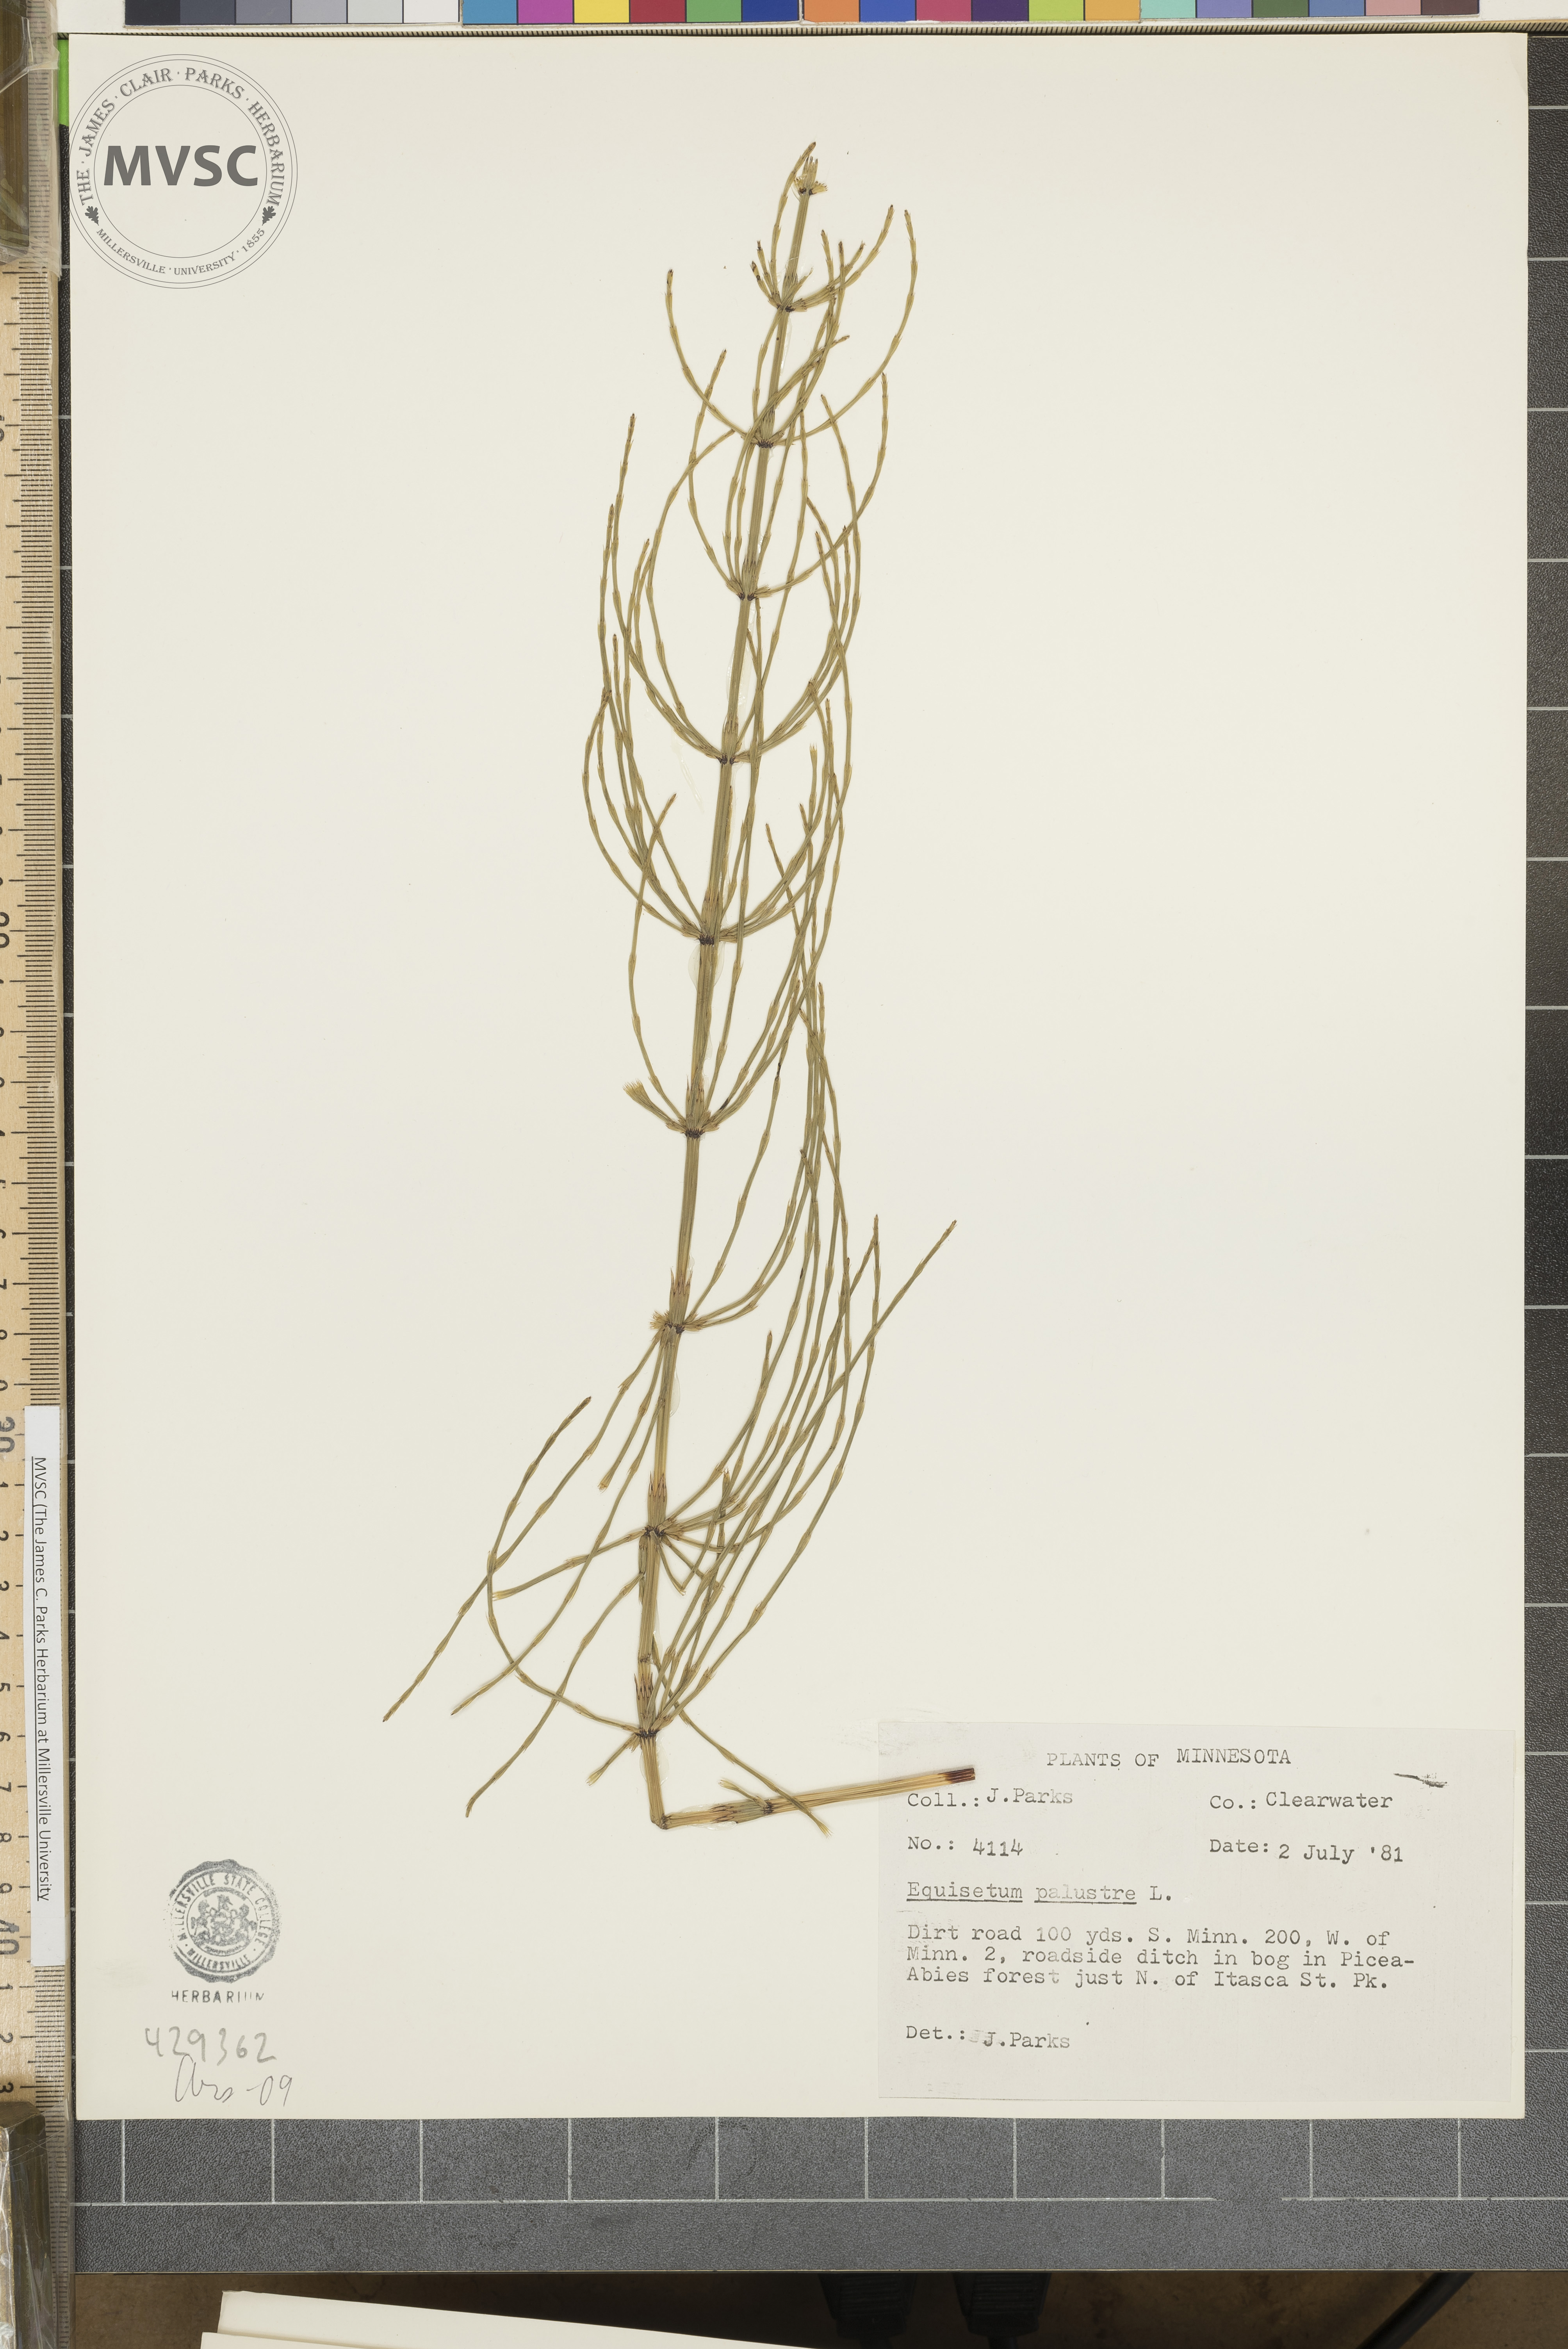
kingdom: Plantae
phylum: Tracheophyta
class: Polypodiopsida
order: Equisetales
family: Equisetaceae
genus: Equisetum
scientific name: Equisetum palustre
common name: Marsh horsetail
